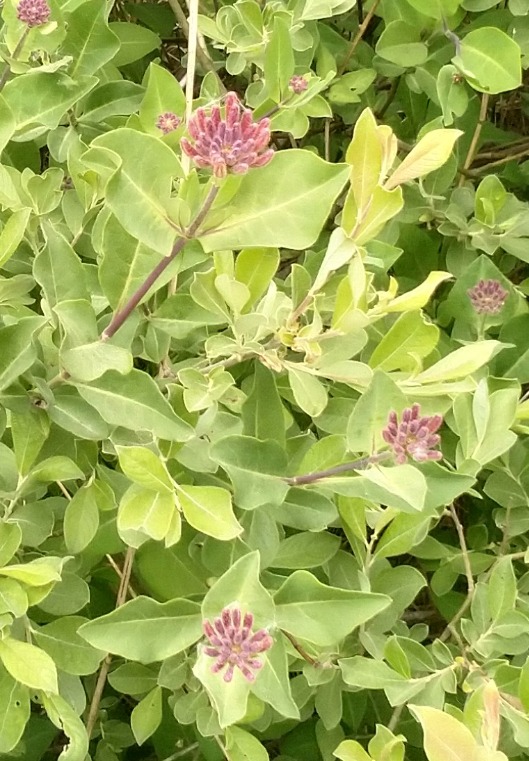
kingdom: Plantae
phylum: Tracheophyta
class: Magnoliopsida
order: Dipsacales
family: Caprifoliaceae
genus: Lonicera
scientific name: Lonicera periclymenum
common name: Almindelig gedeblad
